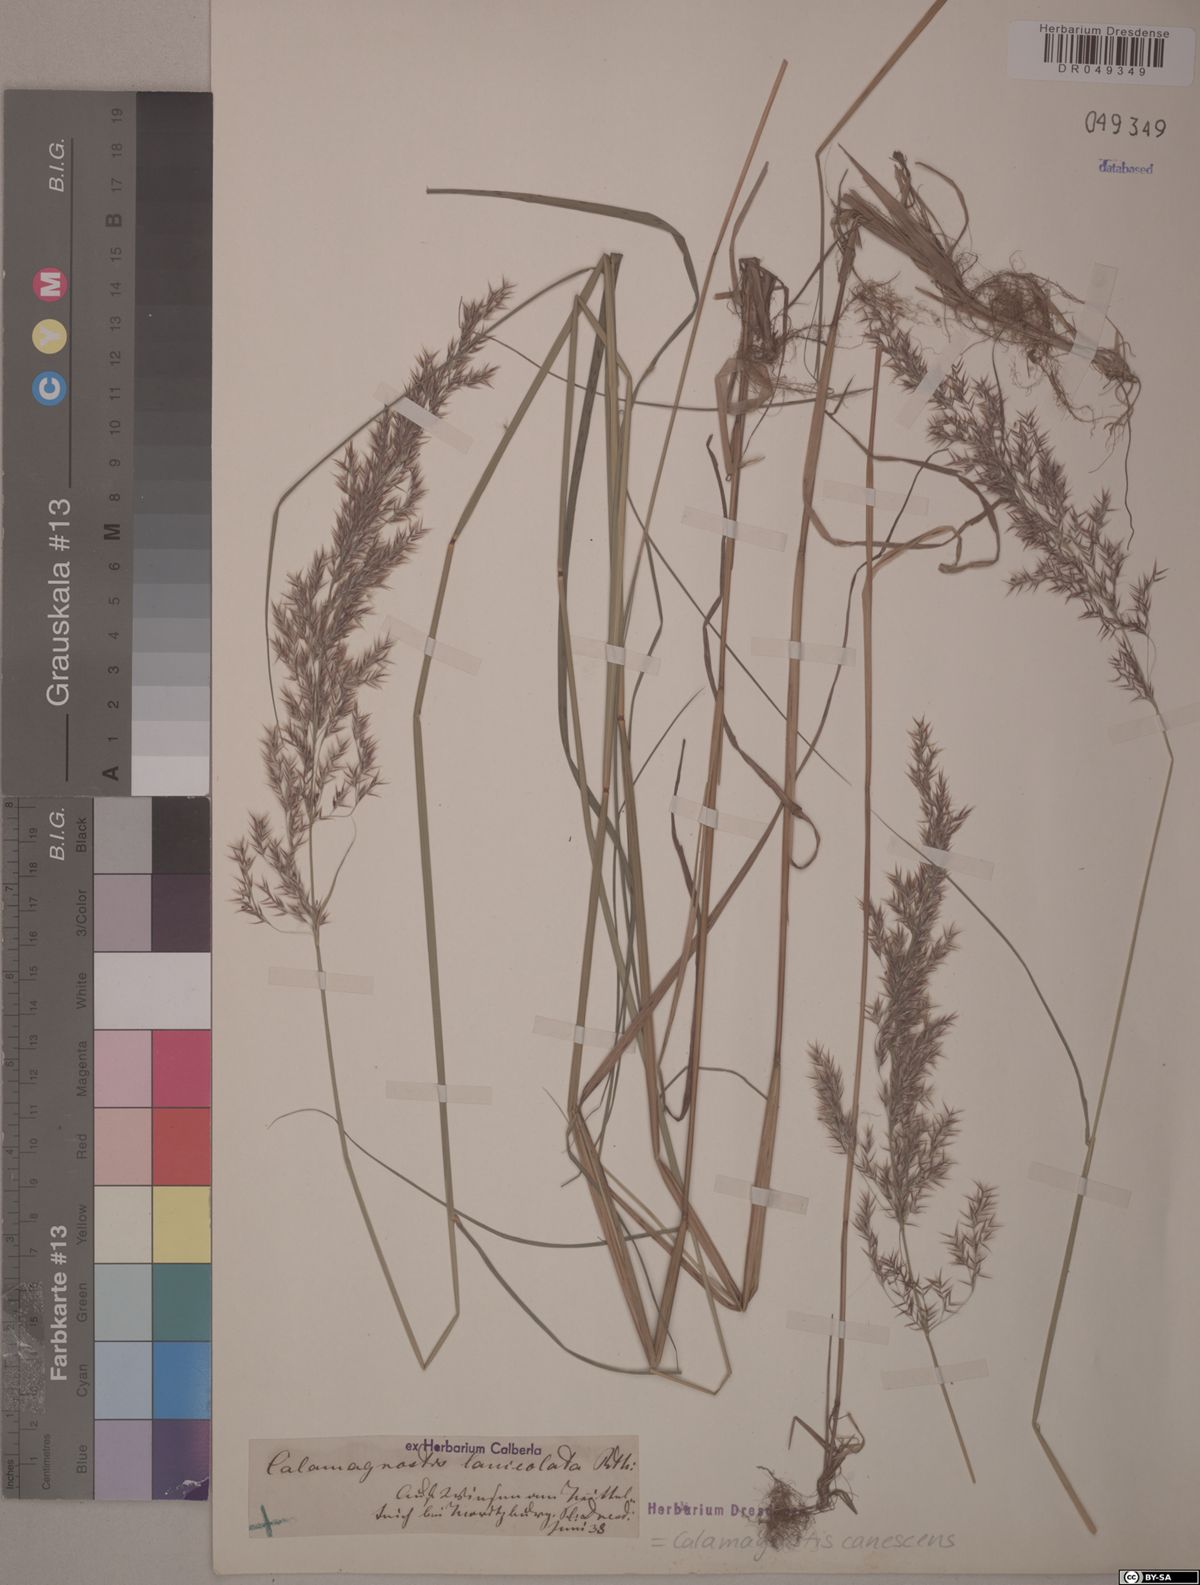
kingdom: Plantae
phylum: Tracheophyta
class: Liliopsida
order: Poales
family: Poaceae
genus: Calamagrostis
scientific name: Calamagrostis canescens
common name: Purple small-reed
